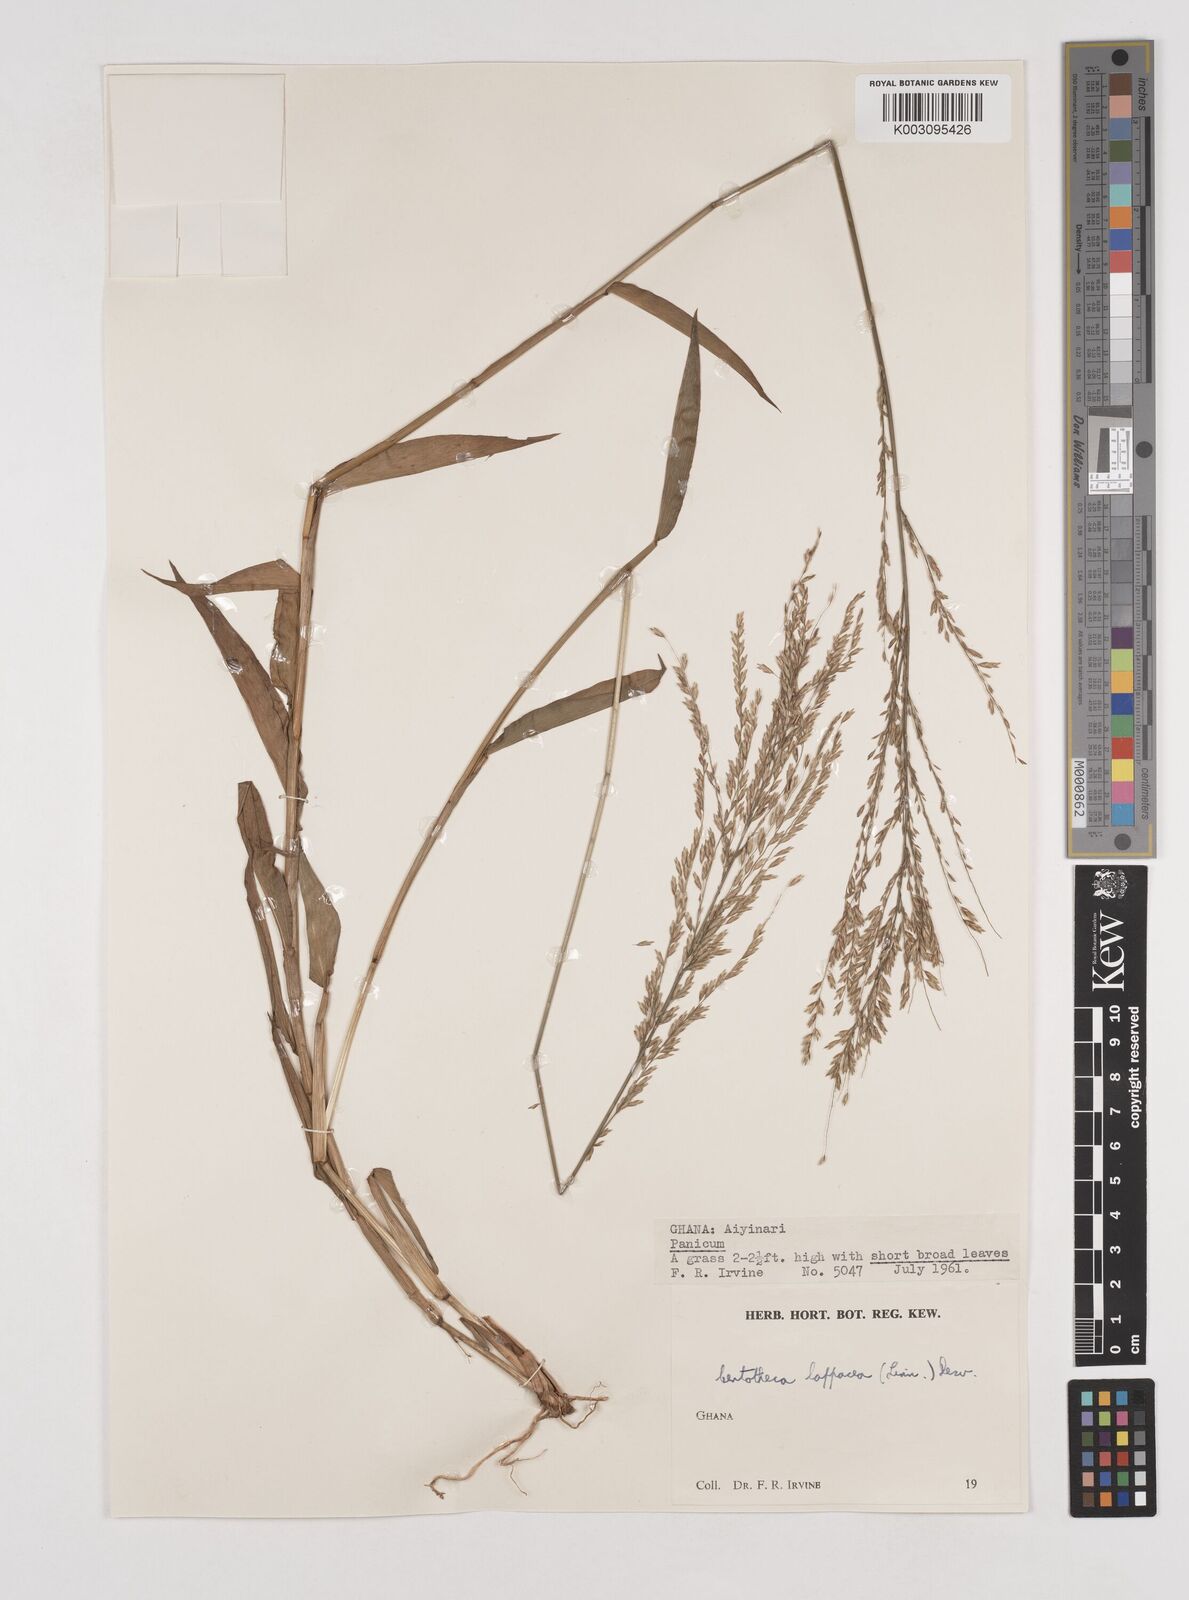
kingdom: Plantae
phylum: Tracheophyta
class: Liliopsida
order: Poales
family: Poaceae
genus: Centotheca
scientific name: Centotheca lappacea
